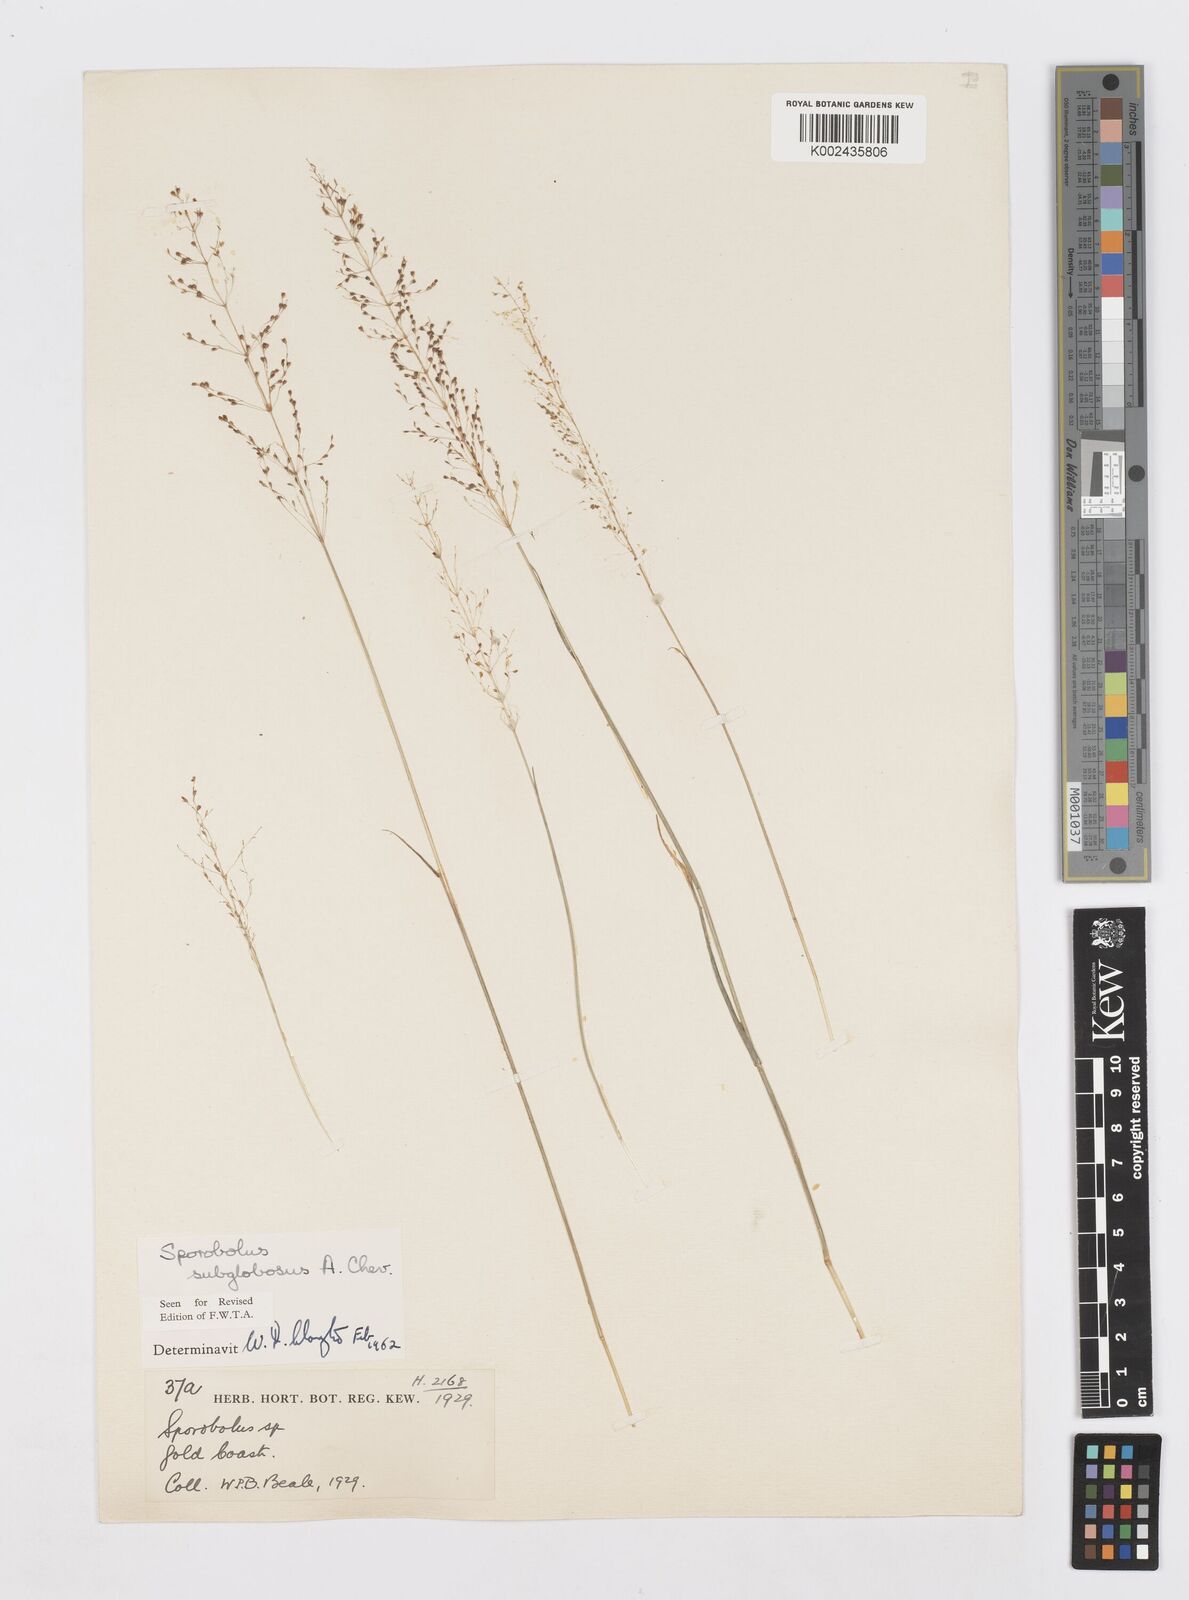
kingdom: Plantae
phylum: Tracheophyta
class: Liliopsida
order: Poales
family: Poaceae
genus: Sporobolus
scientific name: Sporobolus subglobosus
